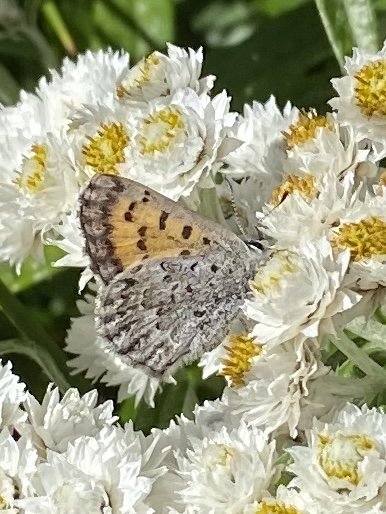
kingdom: Animalia
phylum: Arthropoda
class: Insecta
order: Lepidoptera
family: Lycaenidae
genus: Lycaena
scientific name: Lycaena mariposa
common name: Mariposa Copper
